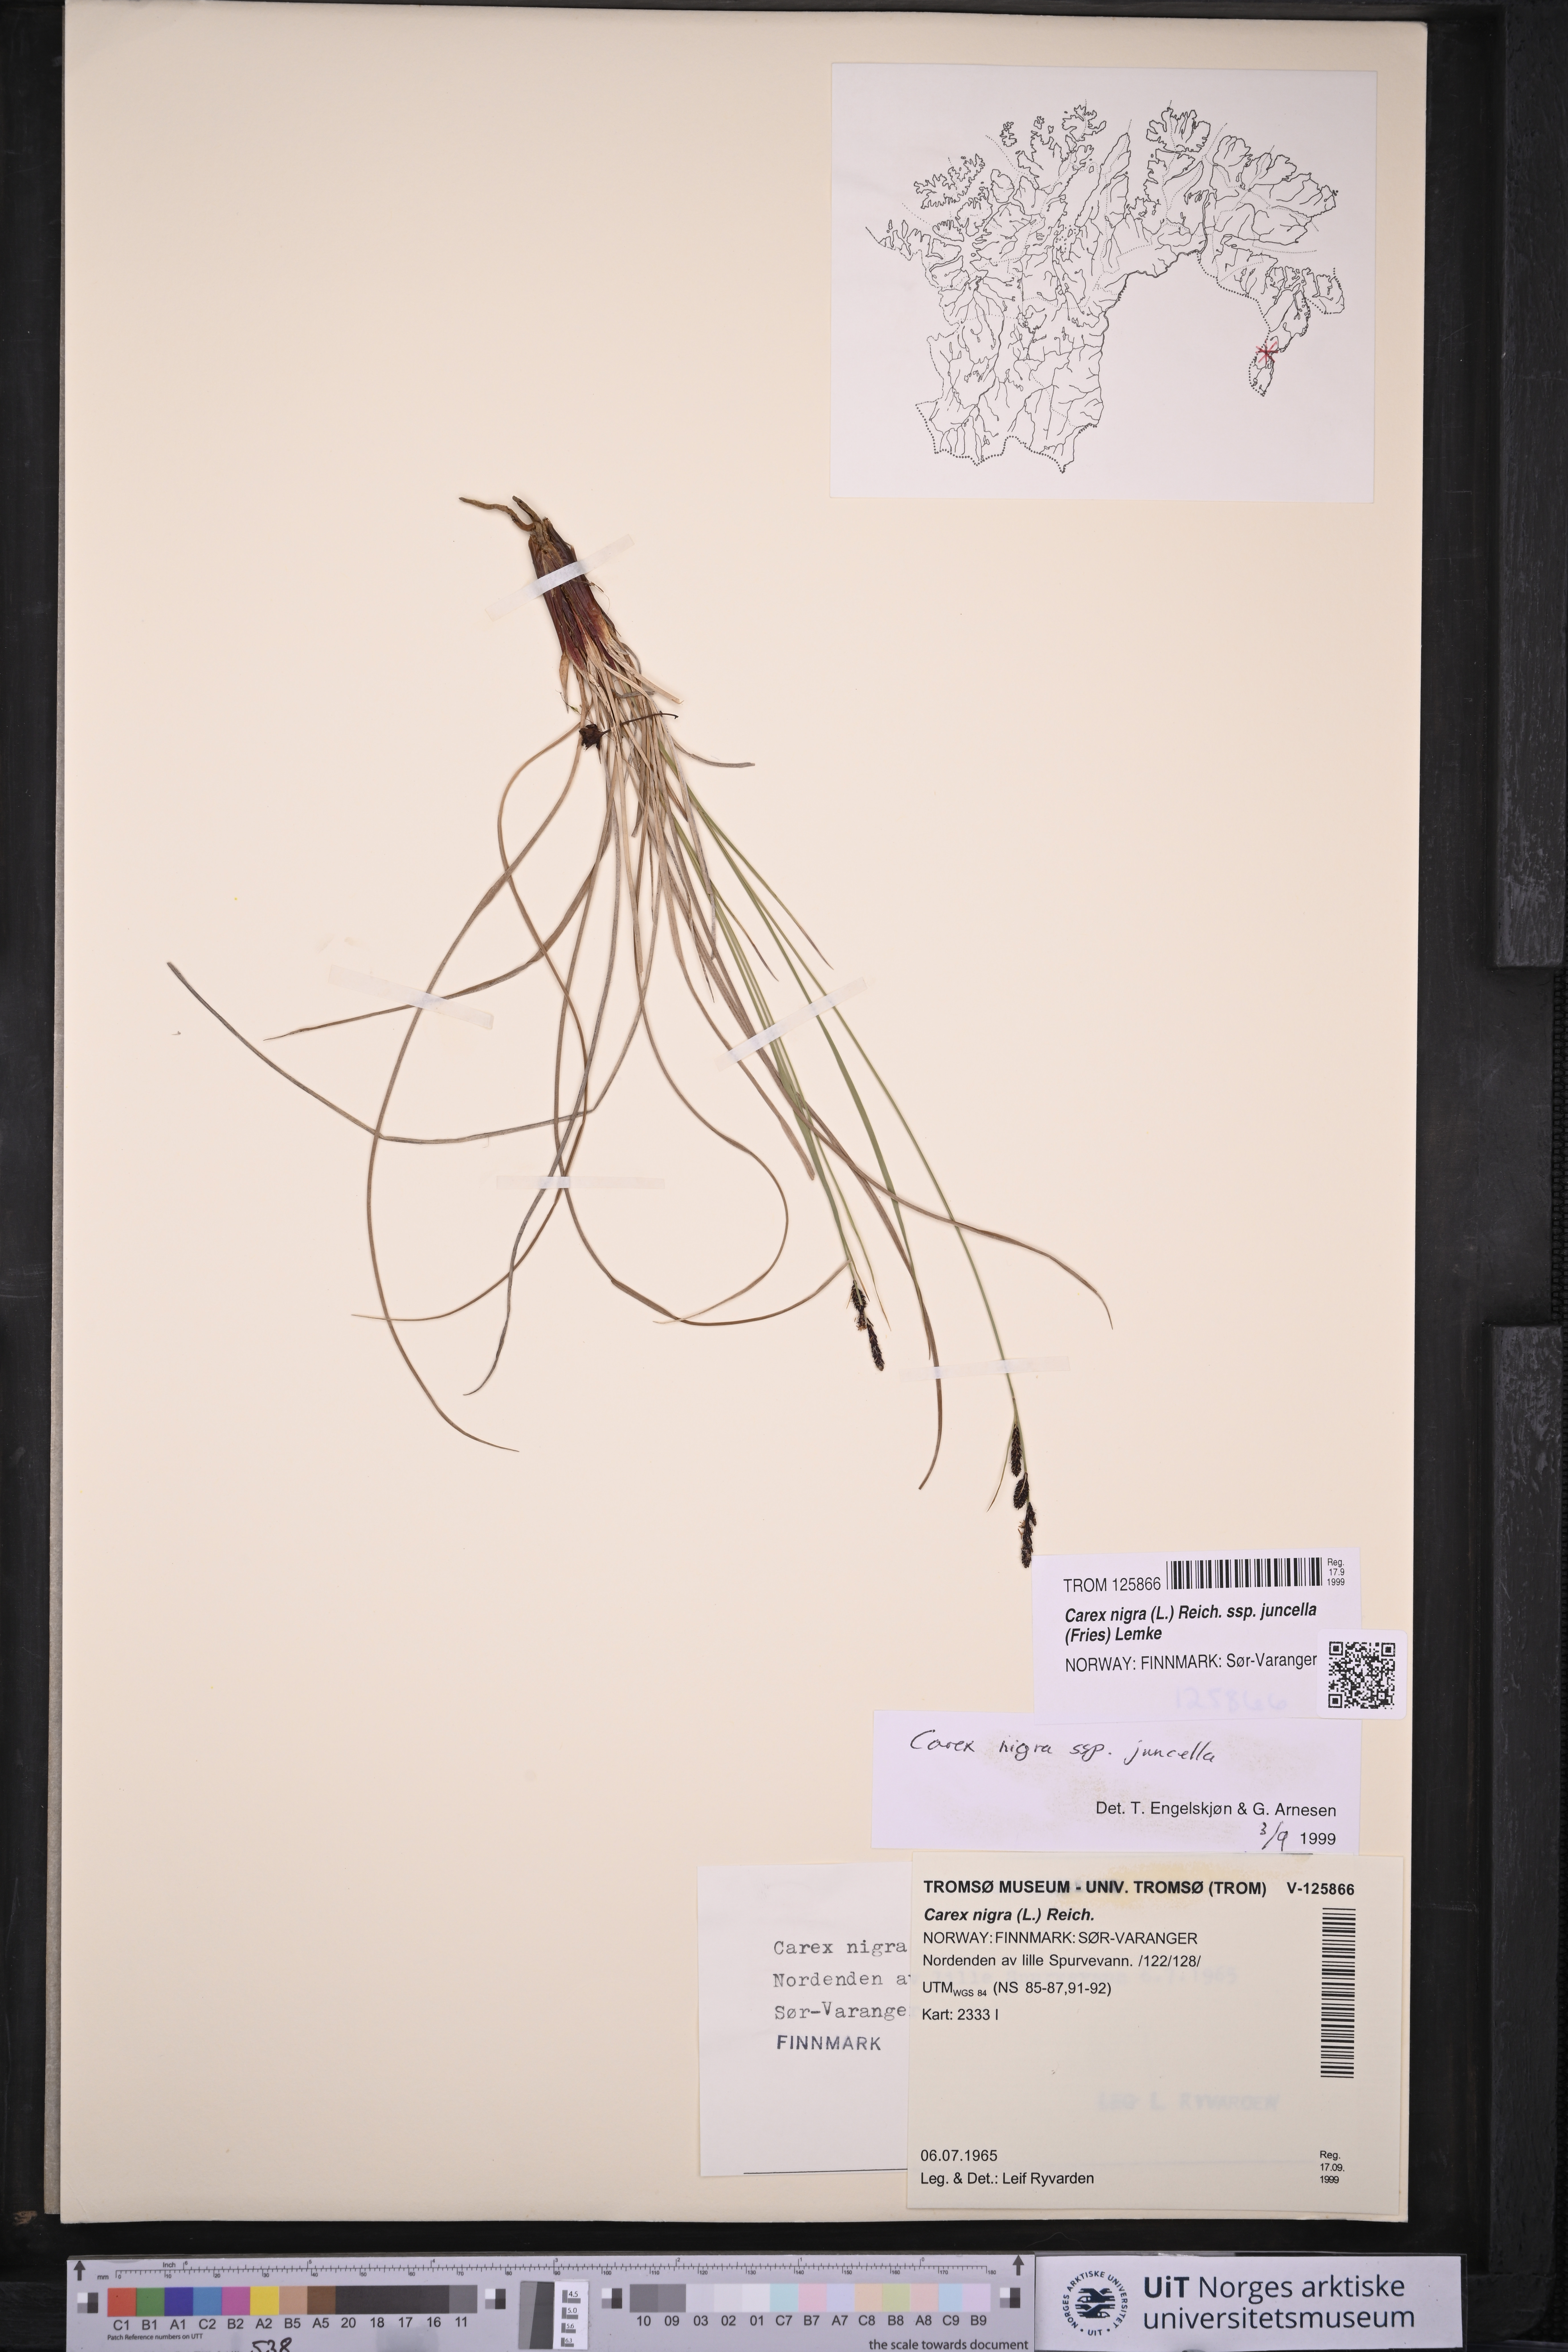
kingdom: Plantae
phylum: Tracheophyta
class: Liliopsida
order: Poales
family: Cyperaceae
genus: Carex
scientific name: Carex nigra
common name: Common sedge
